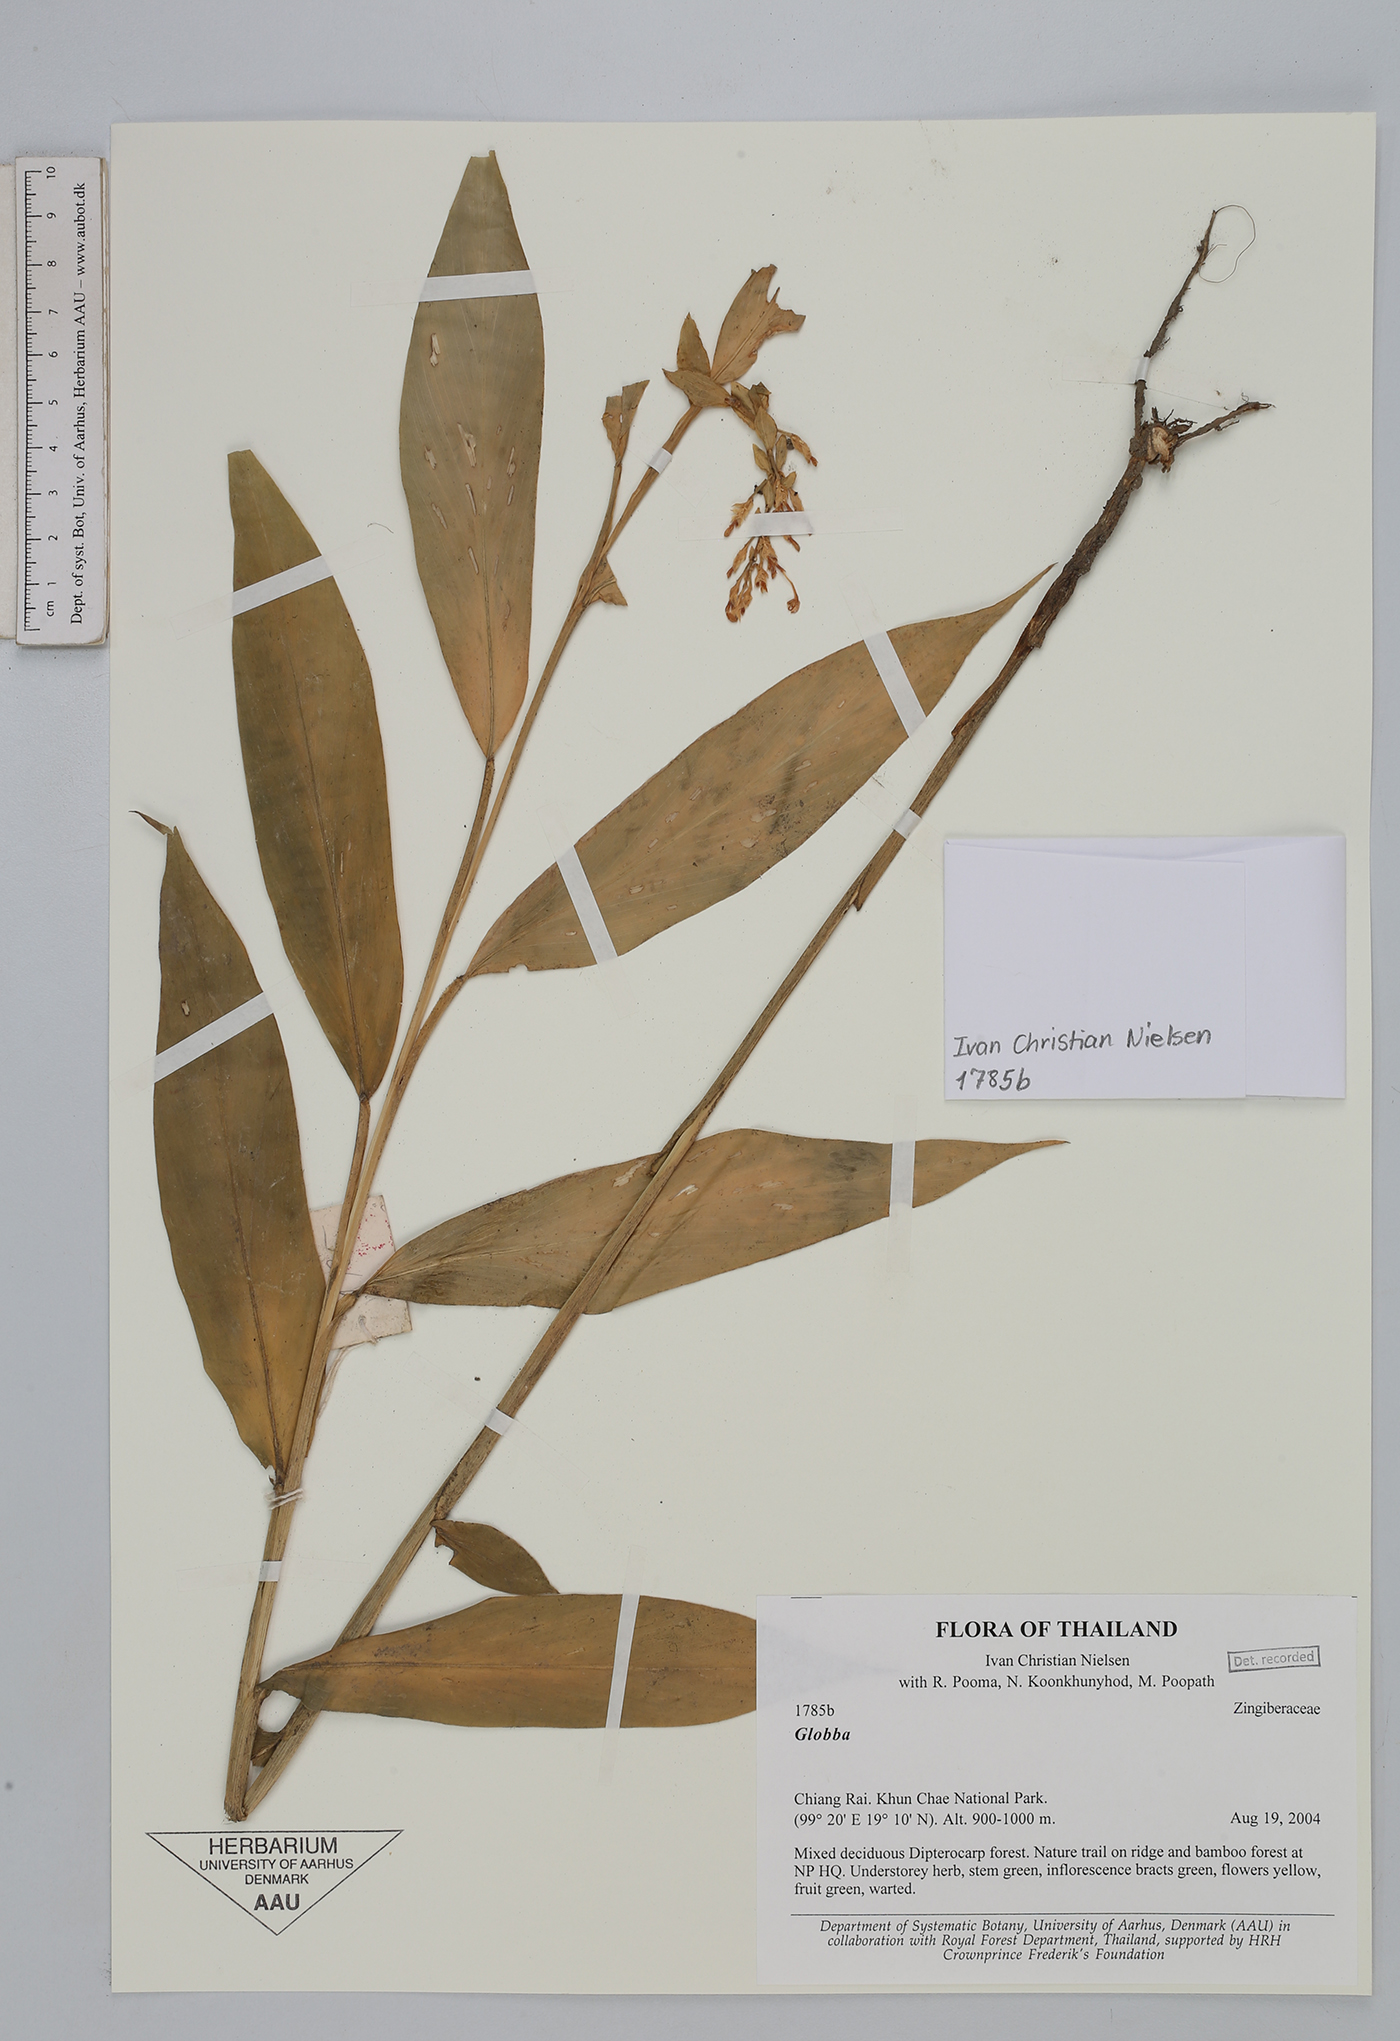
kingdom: Plantae
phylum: Tracheophyta
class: Liliopsida
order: Zingiberales
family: Zingiberaceae
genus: Globba
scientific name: Globba
